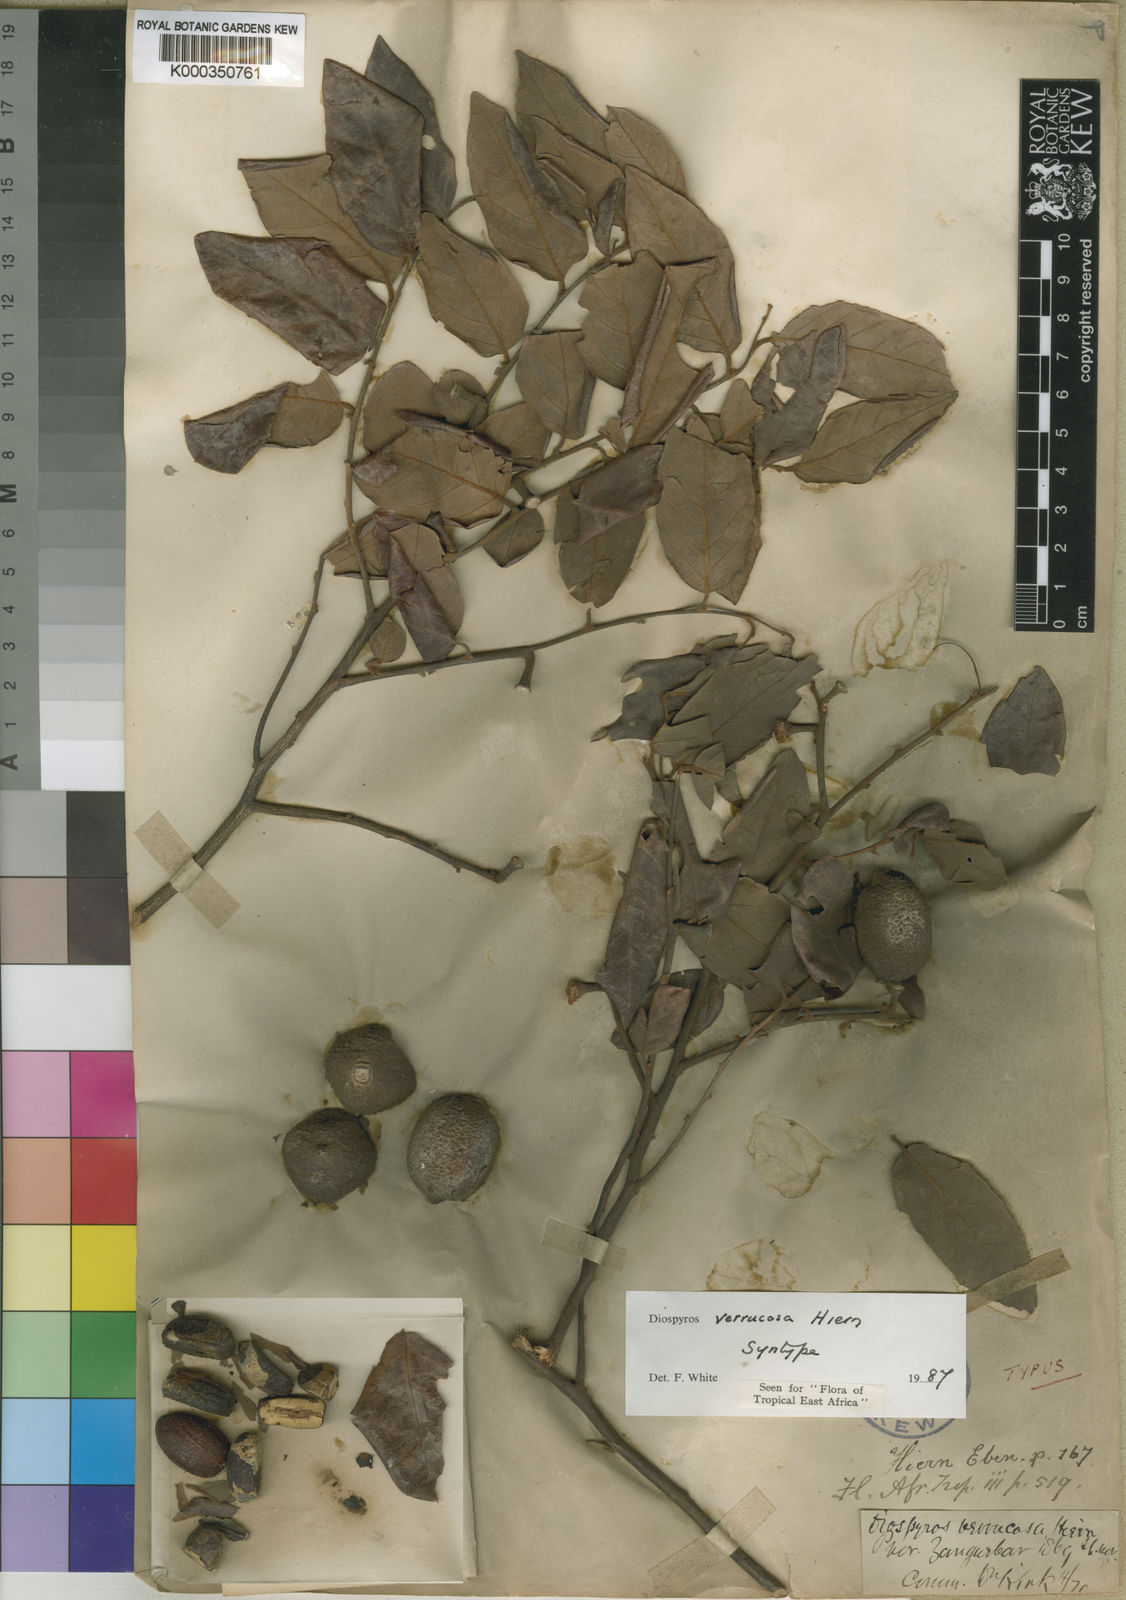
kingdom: Plantae
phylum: Tracheophyta
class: Magnoliopsida
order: Ericales
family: Ebenaceae
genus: Diospyros
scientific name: Diospyros verrucosa
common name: Warty star-apple
